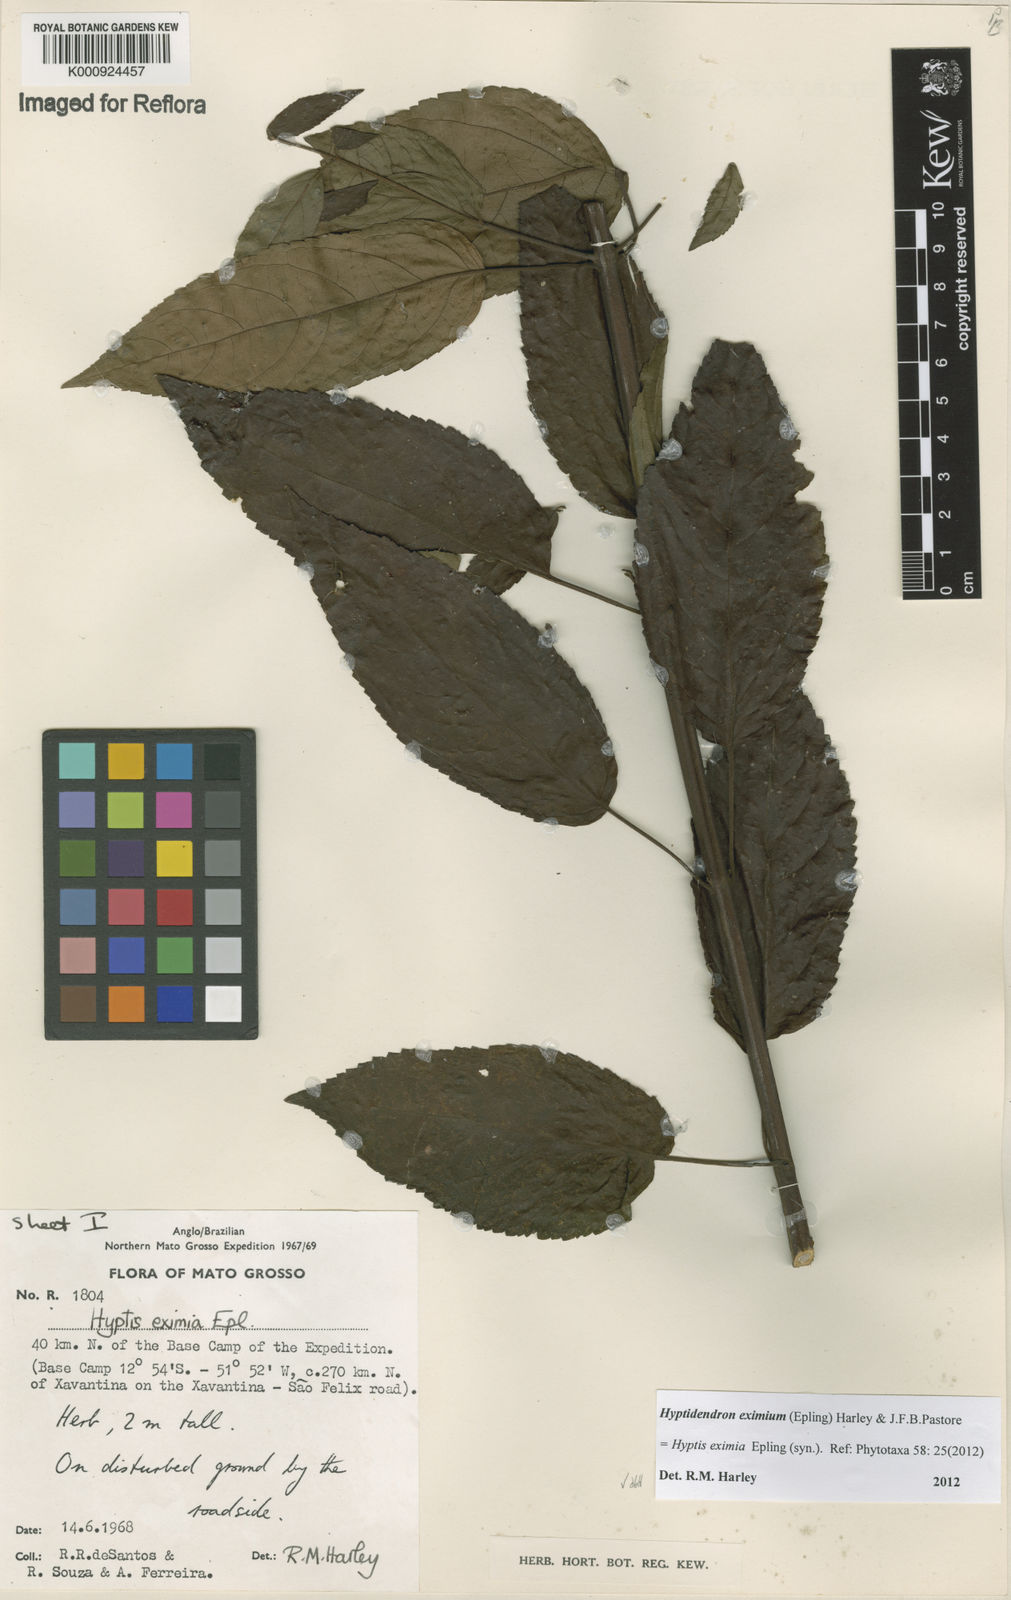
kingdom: Plantae
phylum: Tracheophyta
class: Magnoliopsida
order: Lamiales
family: Lamiaceae
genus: Hyptidendron
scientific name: Hyptidendron eximium
